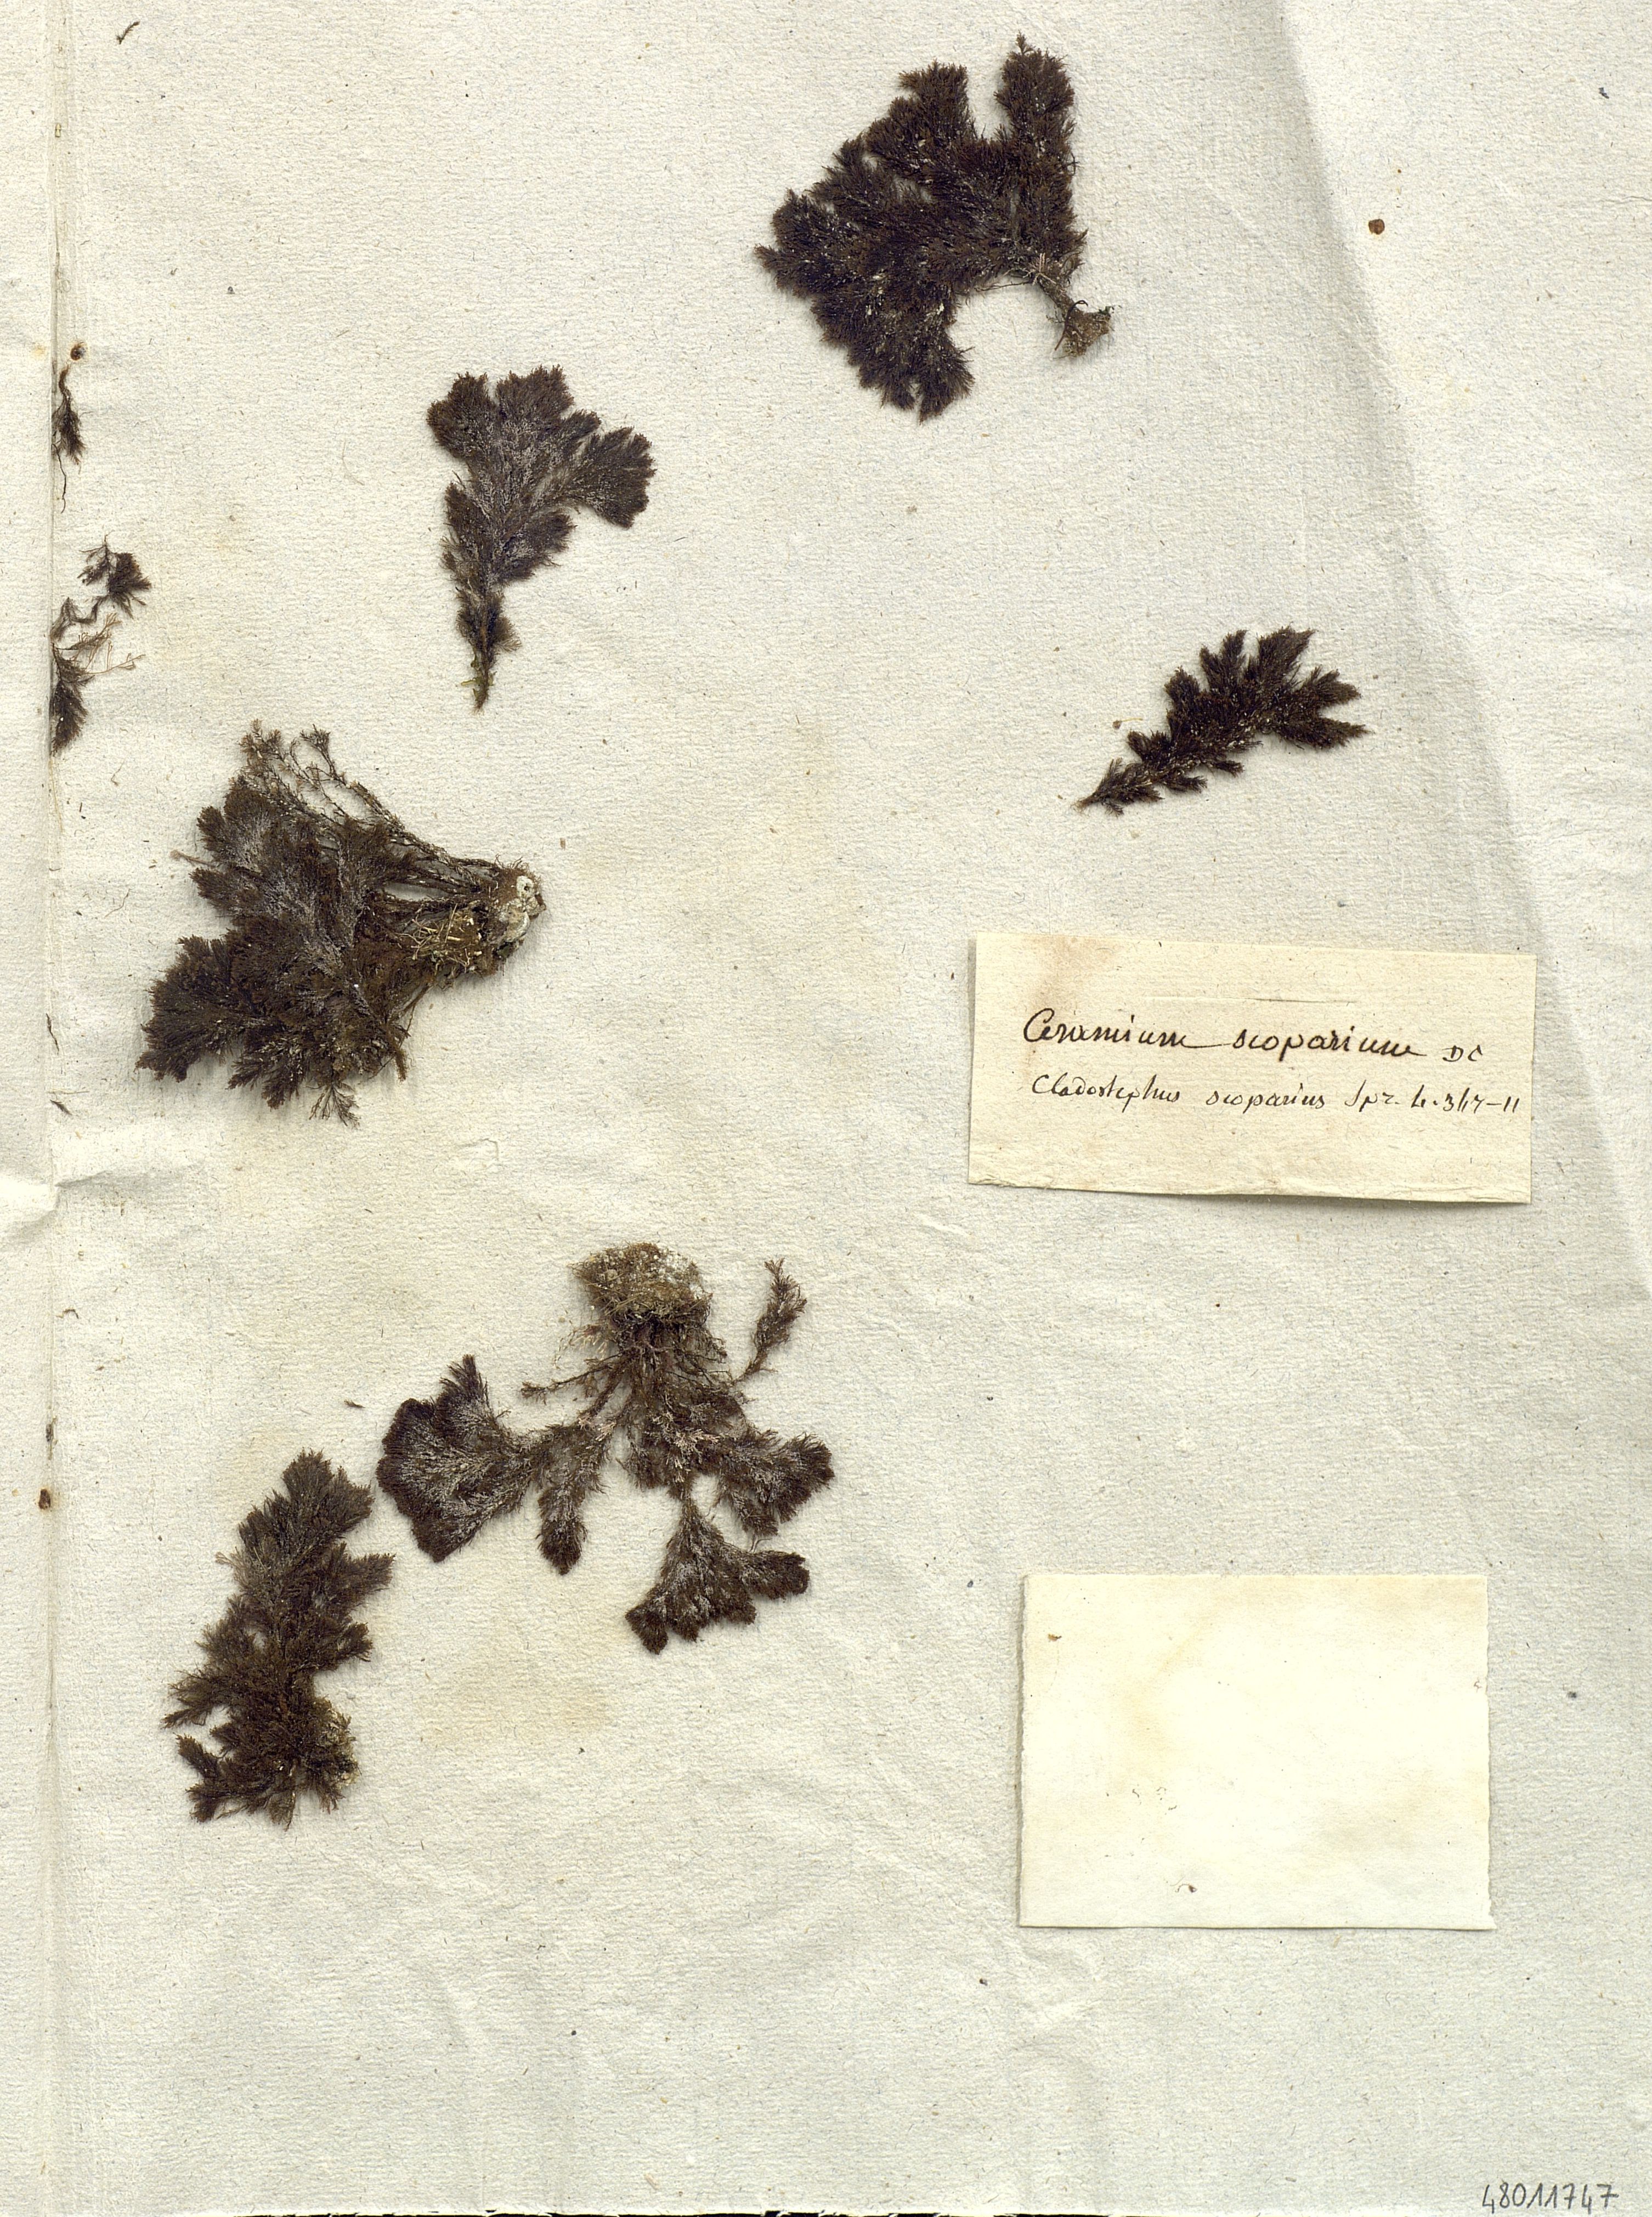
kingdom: Plantae
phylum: Rhodophyta
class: Florideophyceae
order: Ceramiales
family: Ceramiaceae
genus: Ceramium
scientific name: Ceramium
